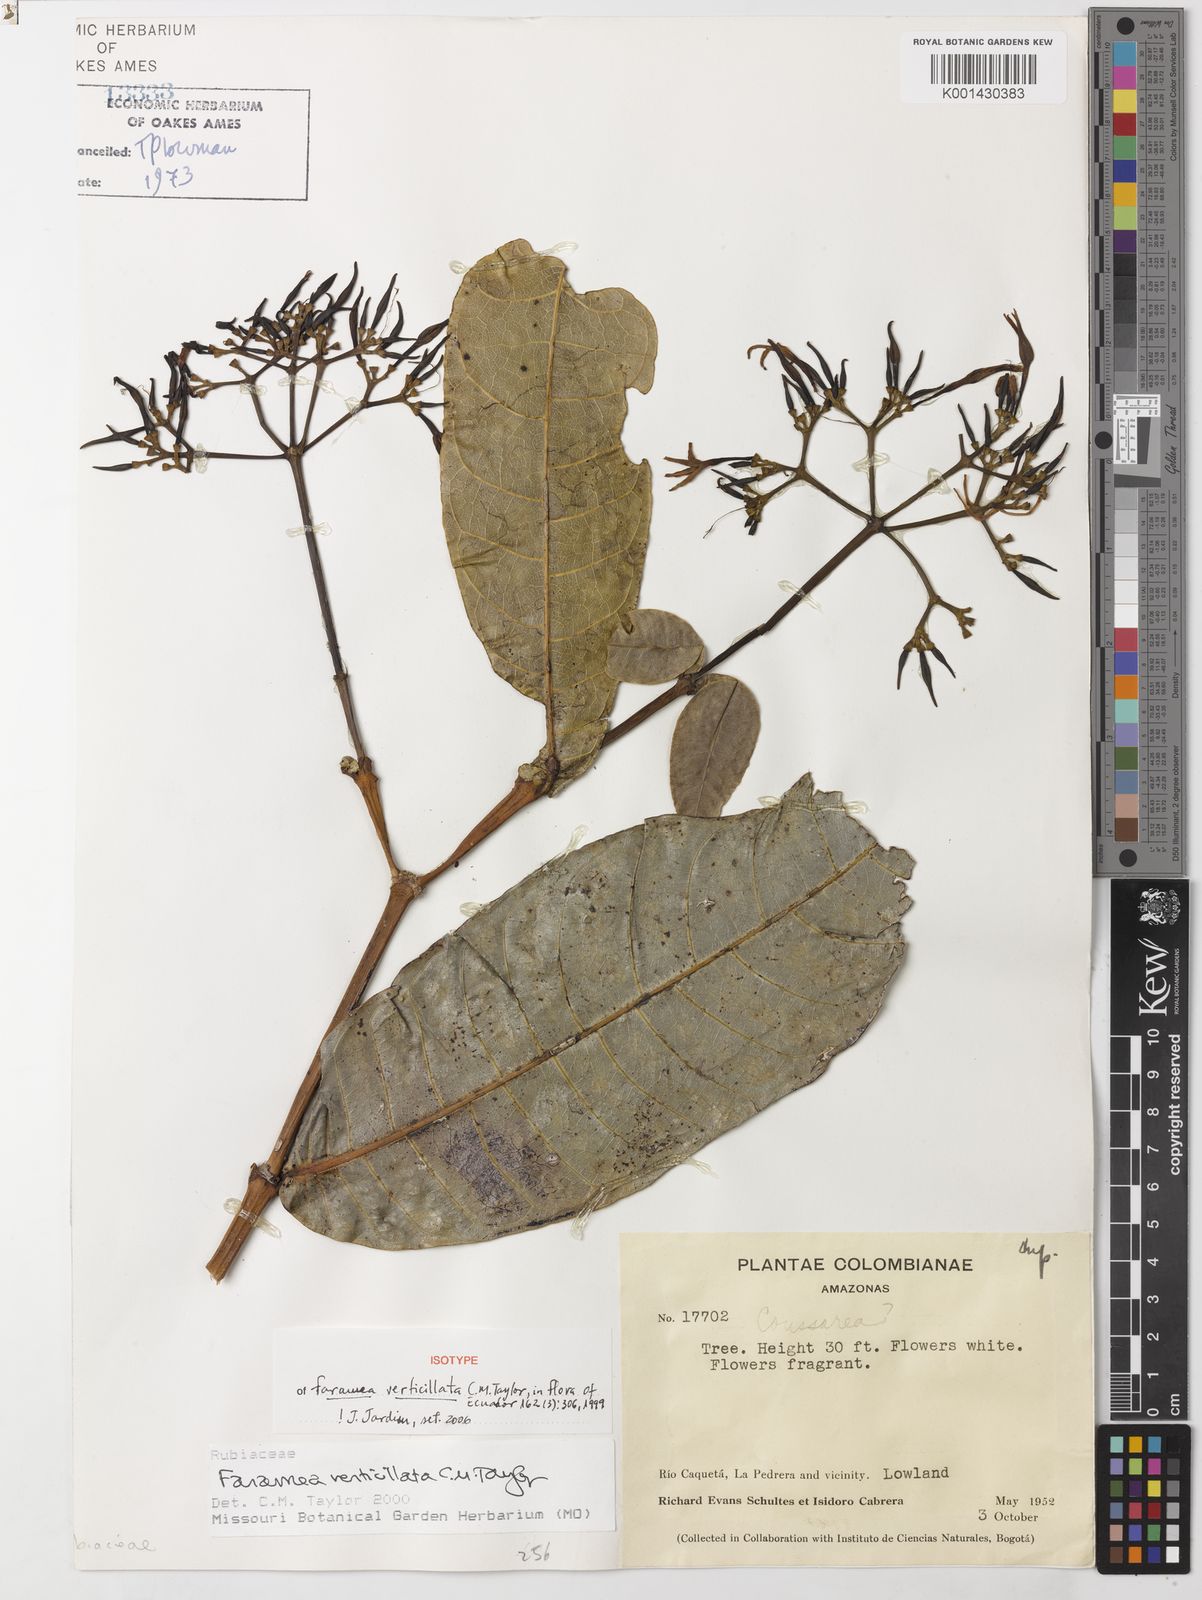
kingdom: Plantae
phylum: Tracheophyta
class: Magnoliopsida
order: Gentianales
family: Rubiaceae
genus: Faramea
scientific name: Faramea verticillata
